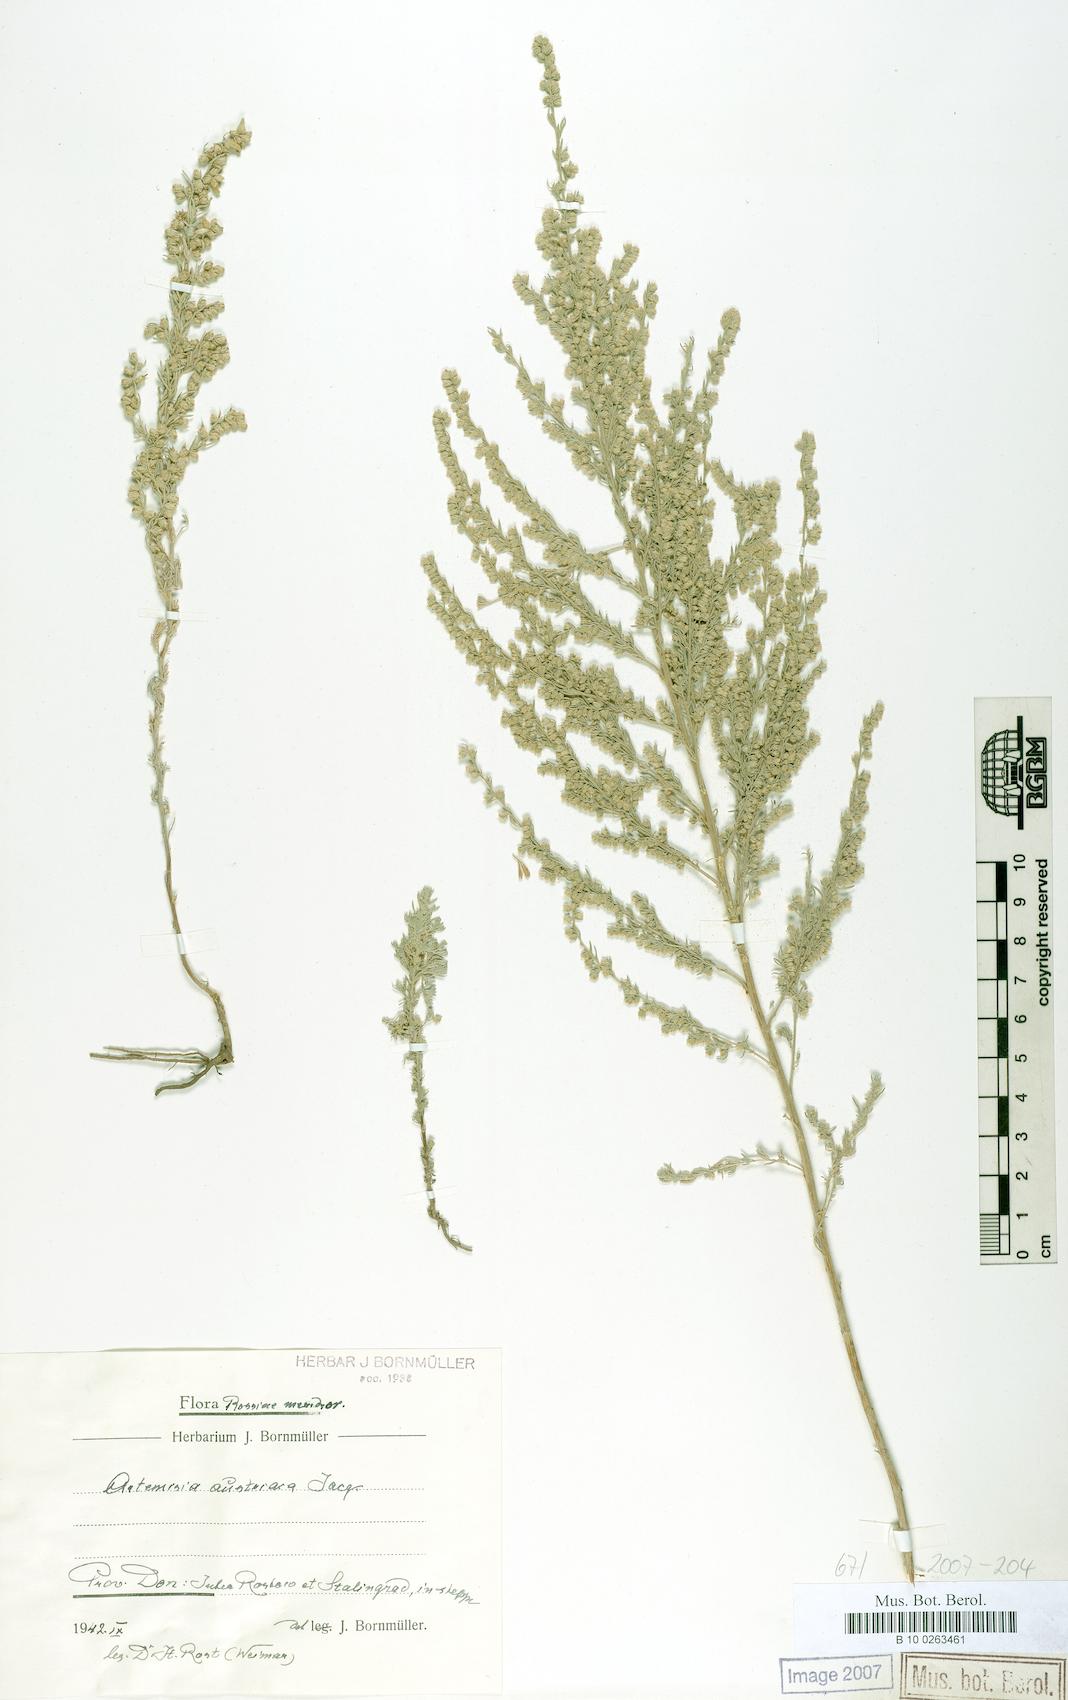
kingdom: Plantae
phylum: Tracheophyta
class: Magnoliopsida
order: Asterales
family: Asteraceae
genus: Artemisia
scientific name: Artemisia austriaca
